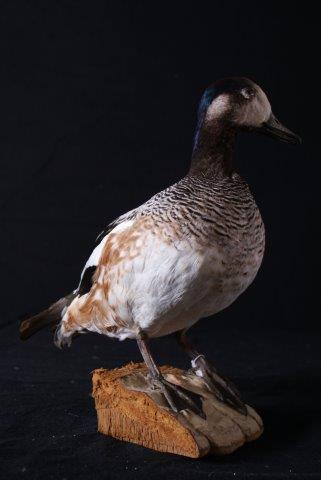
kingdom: Animalia
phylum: Chordata
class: Aves
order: Anseriformes
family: Anatidae
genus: Mareca
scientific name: Mareca sibilatrix
